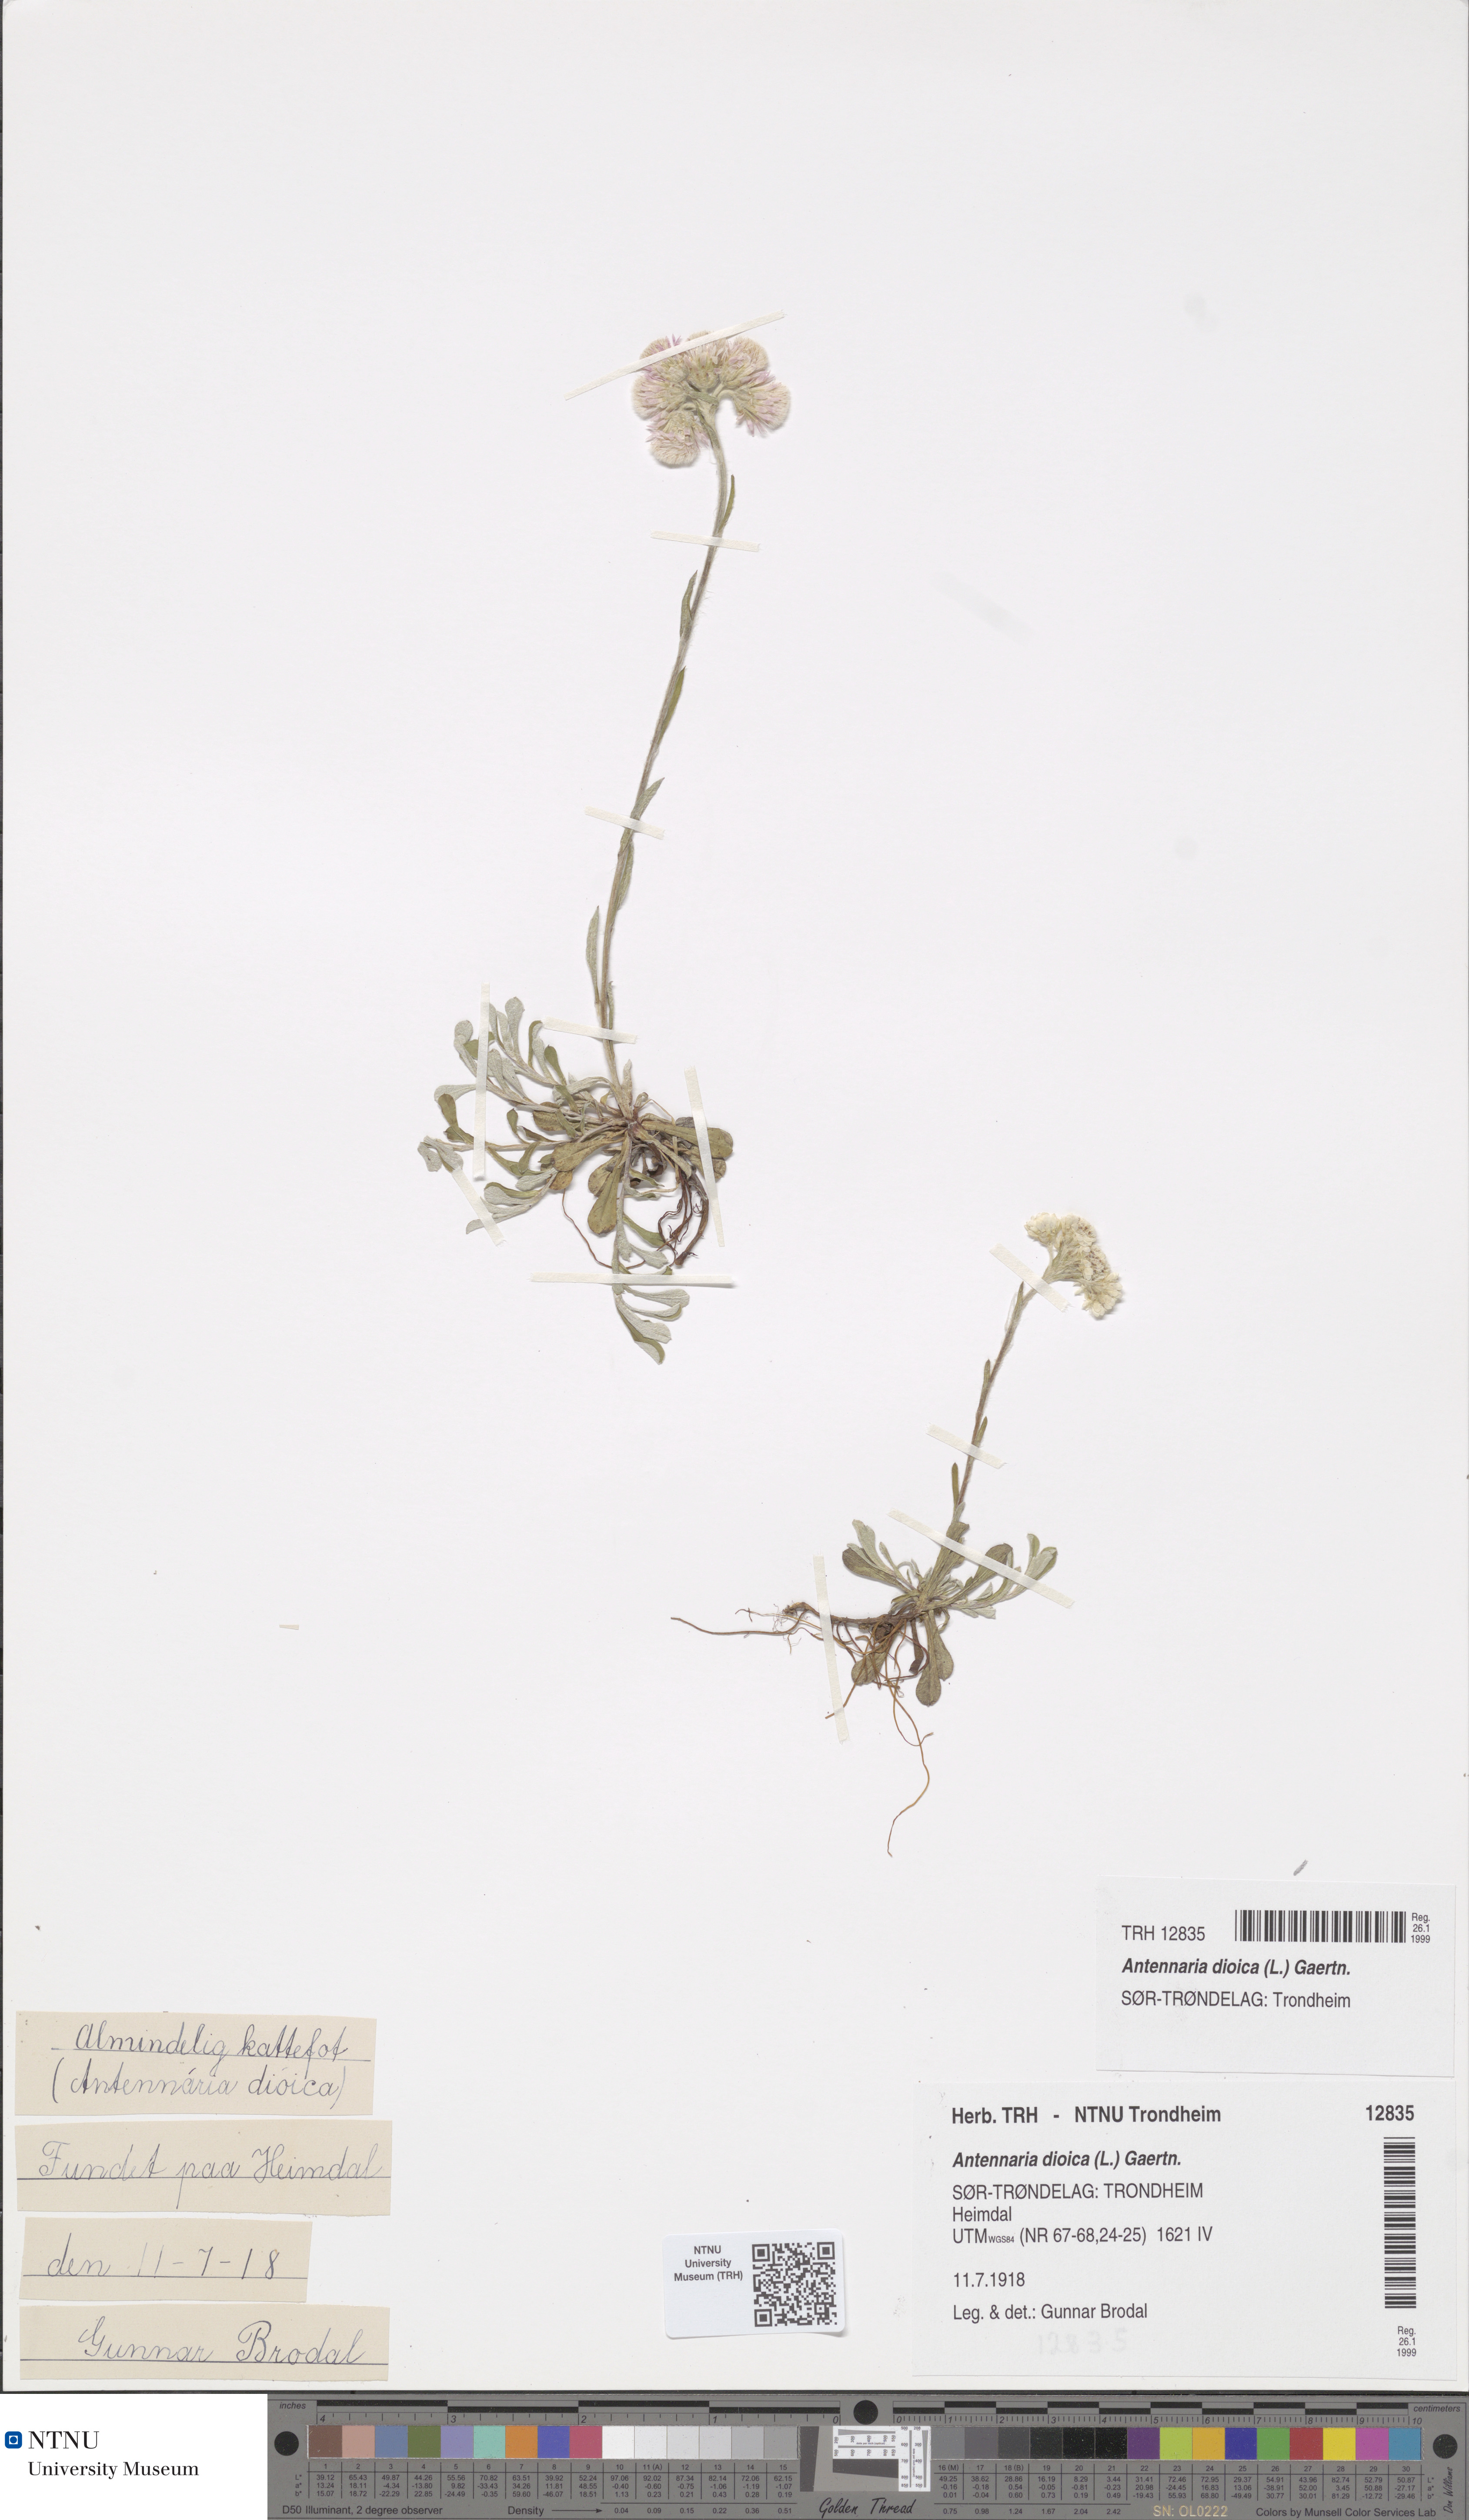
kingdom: Plantae
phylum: Tracheophyta
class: Magnoliopsida
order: Asterales
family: Asteraceae
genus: Antennaria
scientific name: Antennaria dioica
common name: Mountain everlasting
